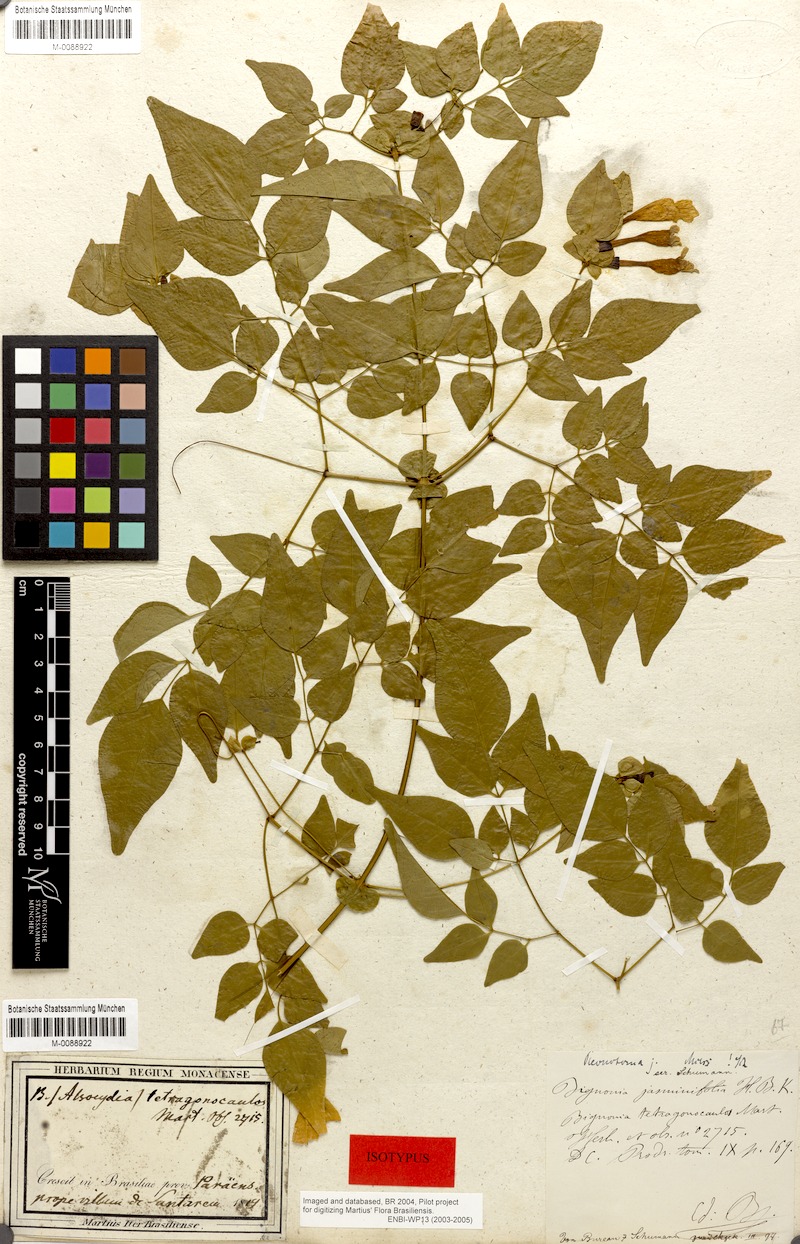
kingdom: Plantae
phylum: Tracheophyta
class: Magnoliopsida
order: Lamiales
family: Bignoniaceae
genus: Pleonotoma
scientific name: Pleonotoma jasminifolia
